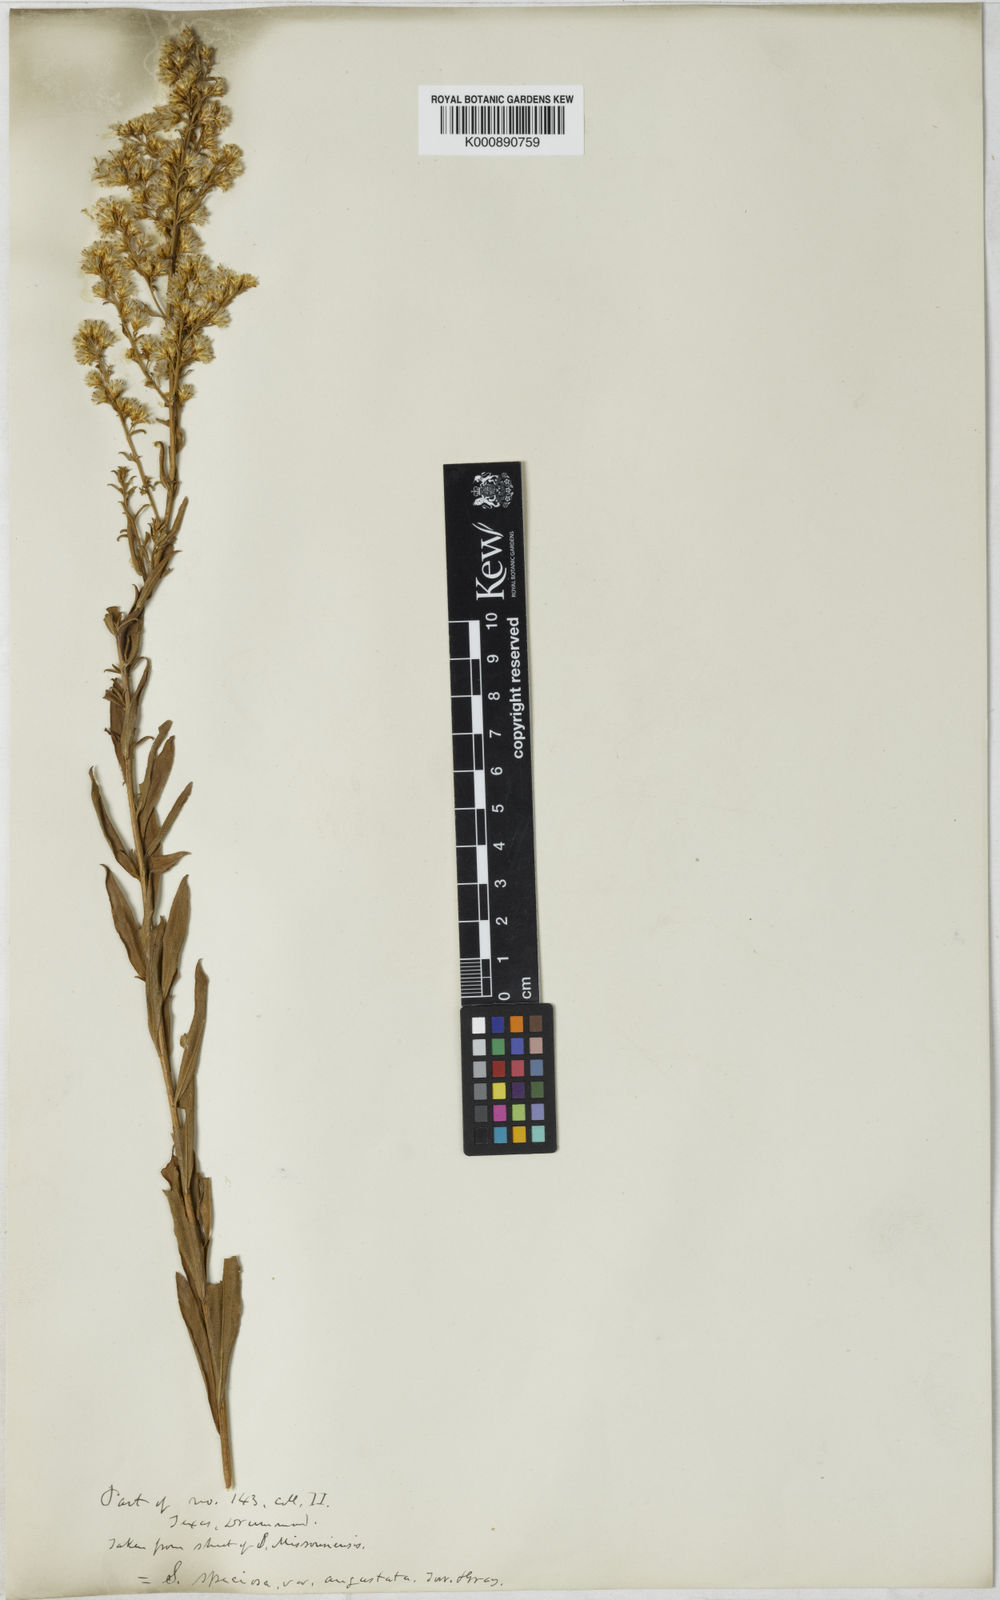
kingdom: Plantae
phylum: Tracheophyta
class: Magnoliopsida
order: Asterales
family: Asteraceae
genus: Solidago
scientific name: Solidago rigidiuscula
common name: Stiff-leaved showy goldenrod
